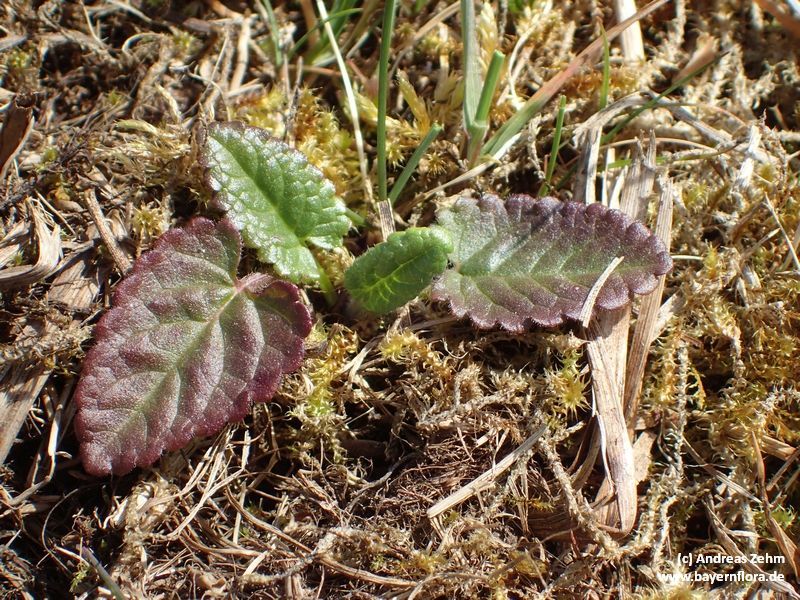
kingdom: Plantae
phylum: Tracheophyta
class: Magnoliopsida
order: Lamiales
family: Lamiaceae
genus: Betonica
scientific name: Betonica officinalis
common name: Bishop's-wort
